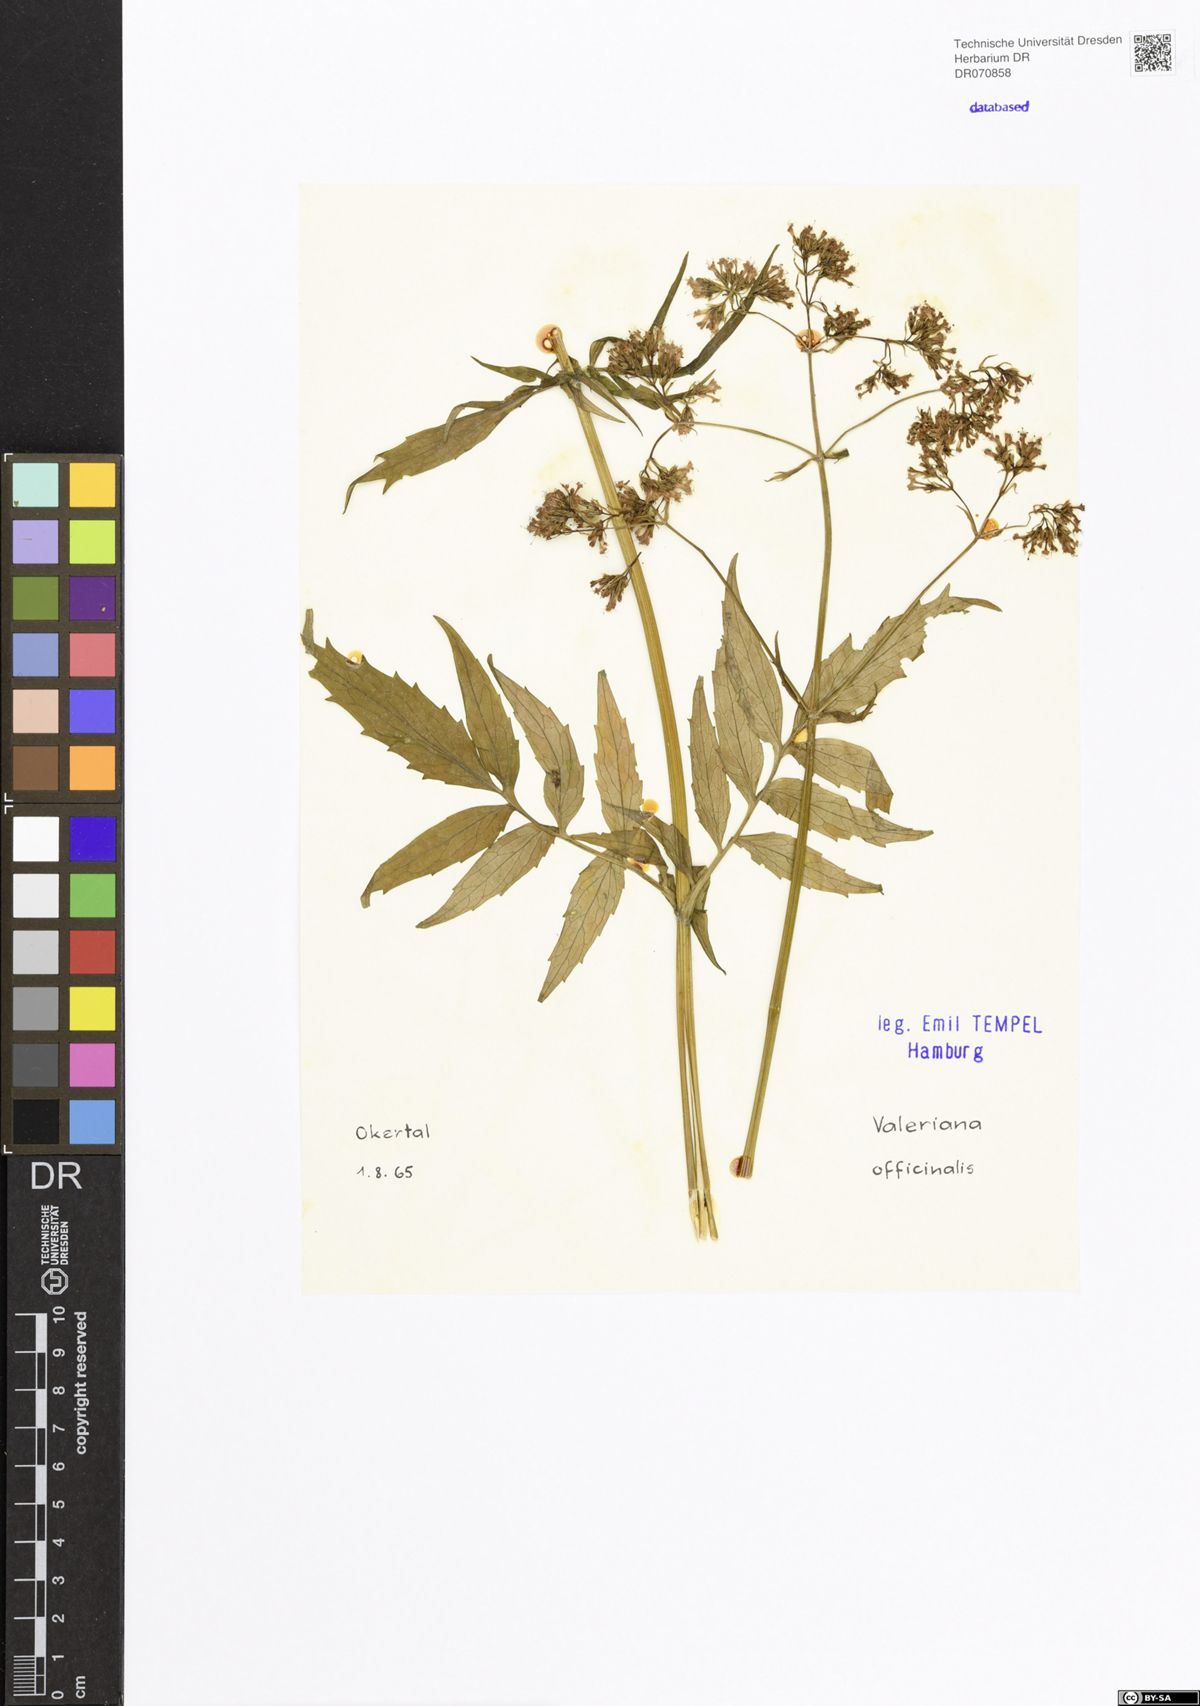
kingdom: Plantae
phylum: Tracheophyta
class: Magnoliopsida
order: Dipsacales
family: Caprifoliaceae
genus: Valeriana
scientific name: Valeriana officinalis
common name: Common valerian
